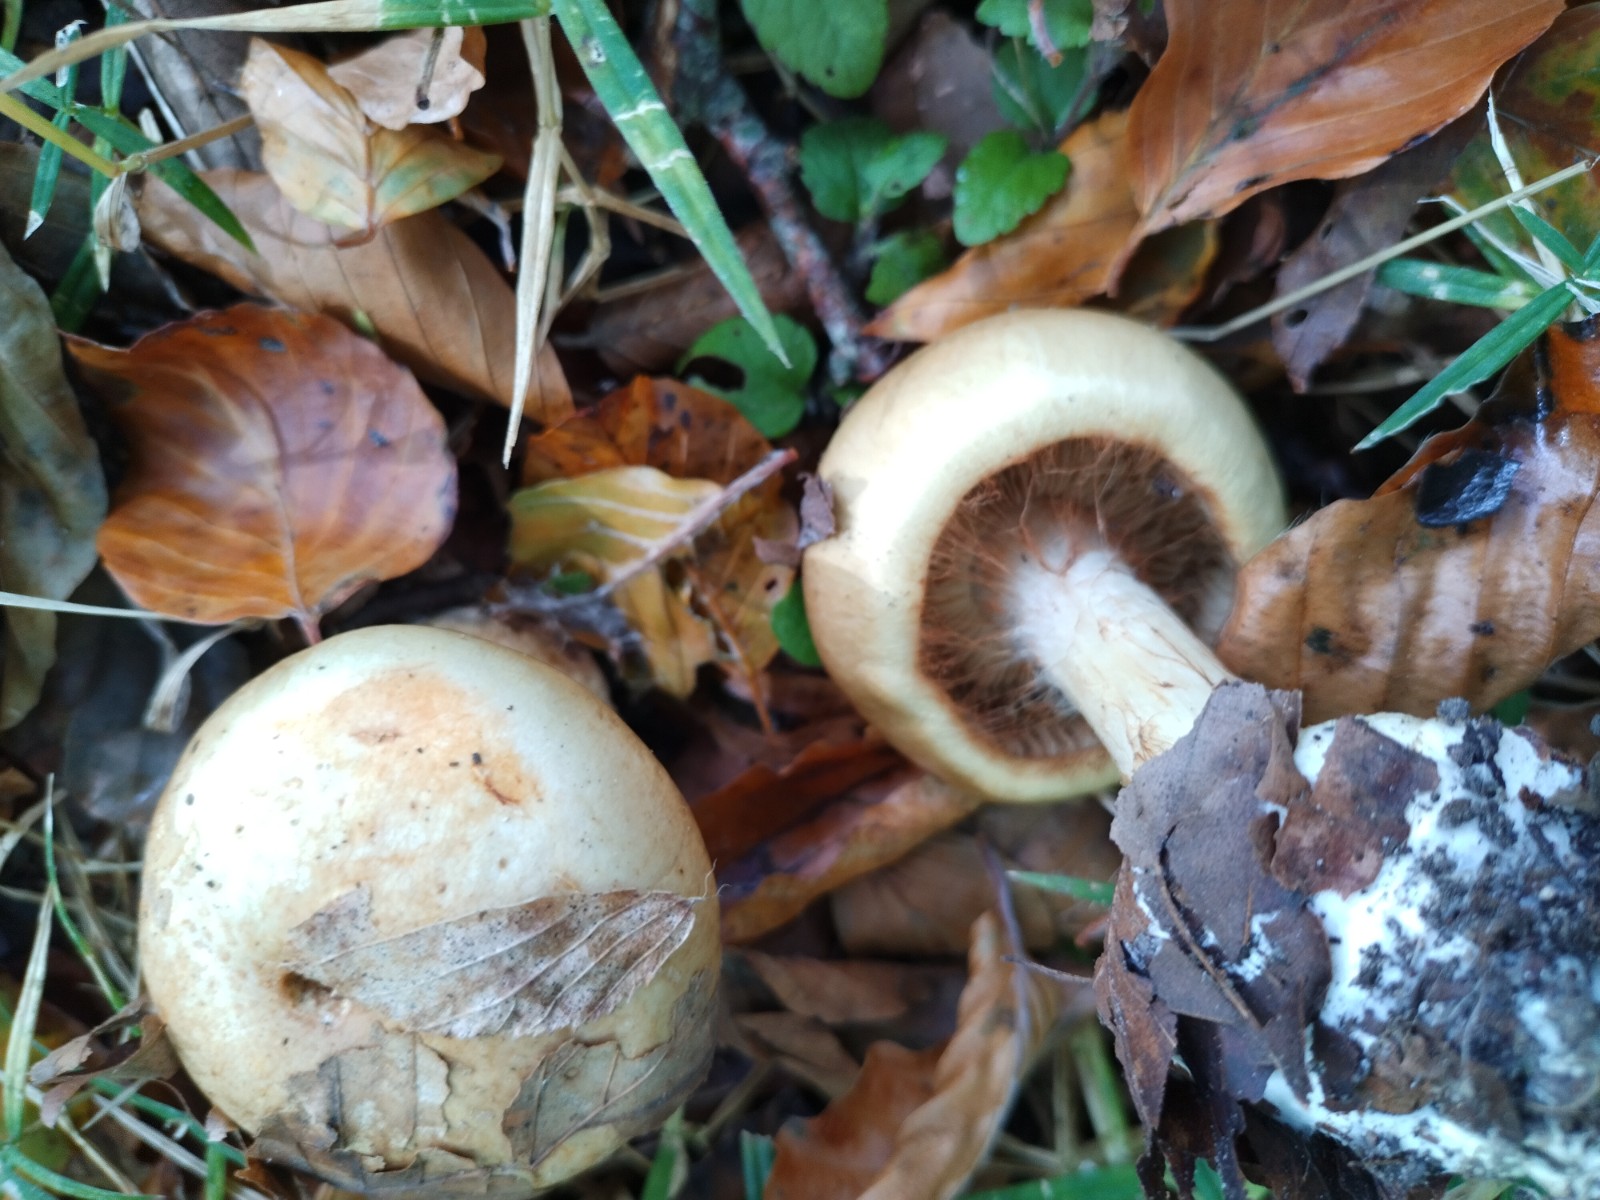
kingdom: Fungi
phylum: Basidiomycota
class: Agaricomycetes
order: Agaricales
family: Cortinariaceae
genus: Calonarius
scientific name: Calonarius humolens
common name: radise-slørhat
